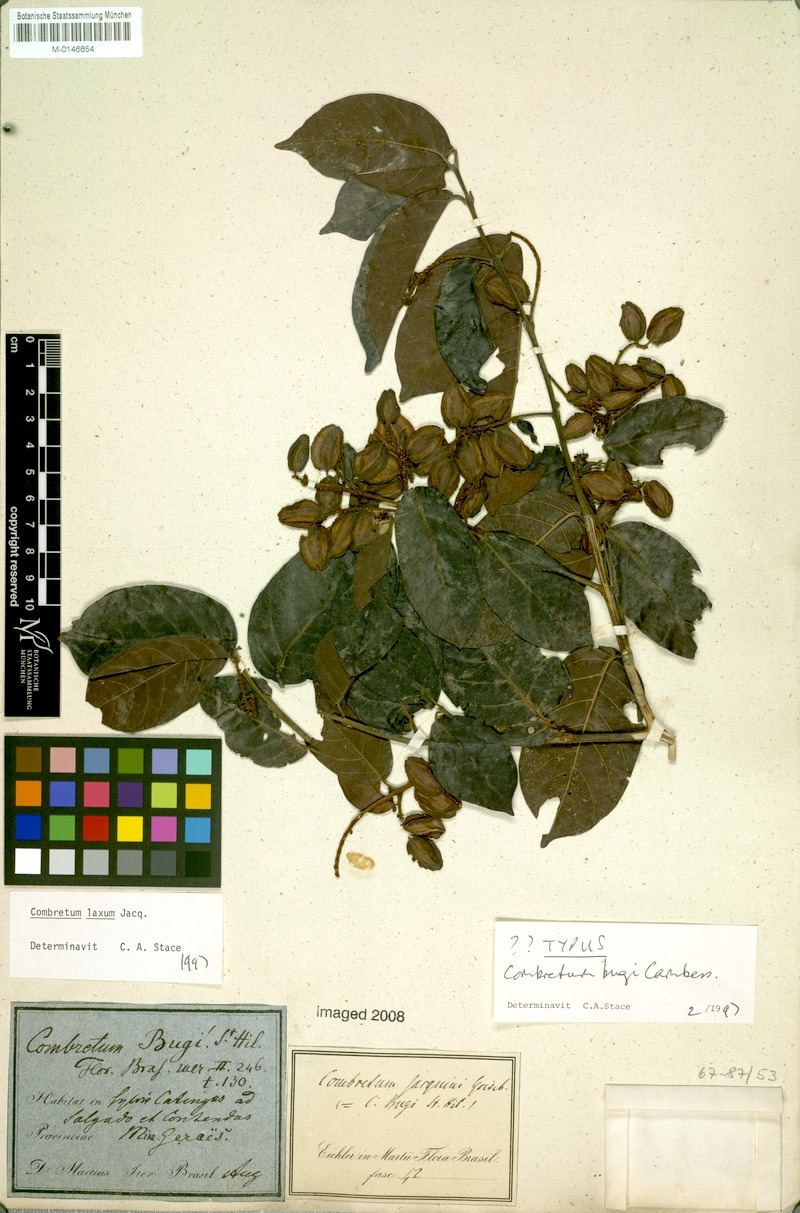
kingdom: Plantae
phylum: Tracheophyta
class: Magnoliopsida
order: Myrtales
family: Combretaceae
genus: Combretum
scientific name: Combretum laxum
